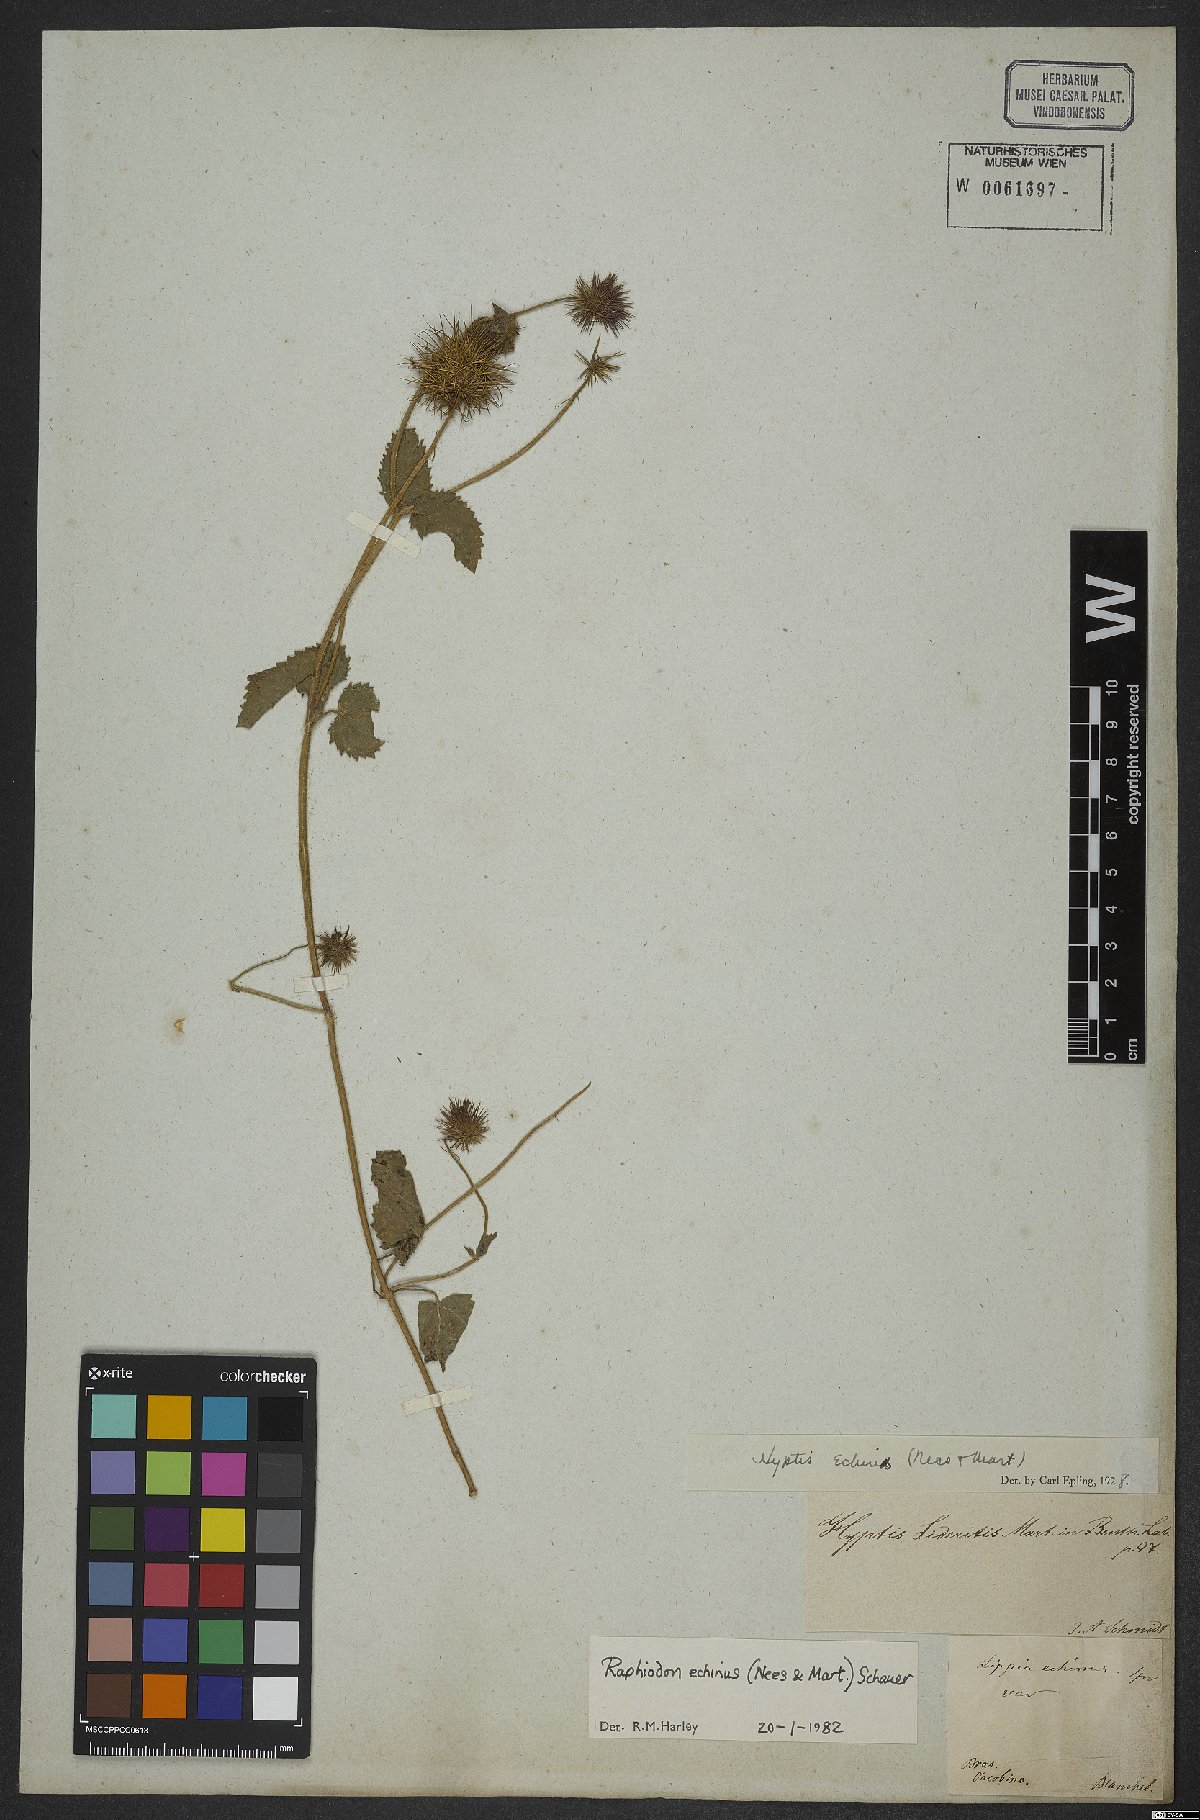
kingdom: Plantae
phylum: Tracheophyta
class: Magnoliopsida
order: Lamiales
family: Lamiaceae
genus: Rhaphiodon
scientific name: Rhaphiodon echinus
